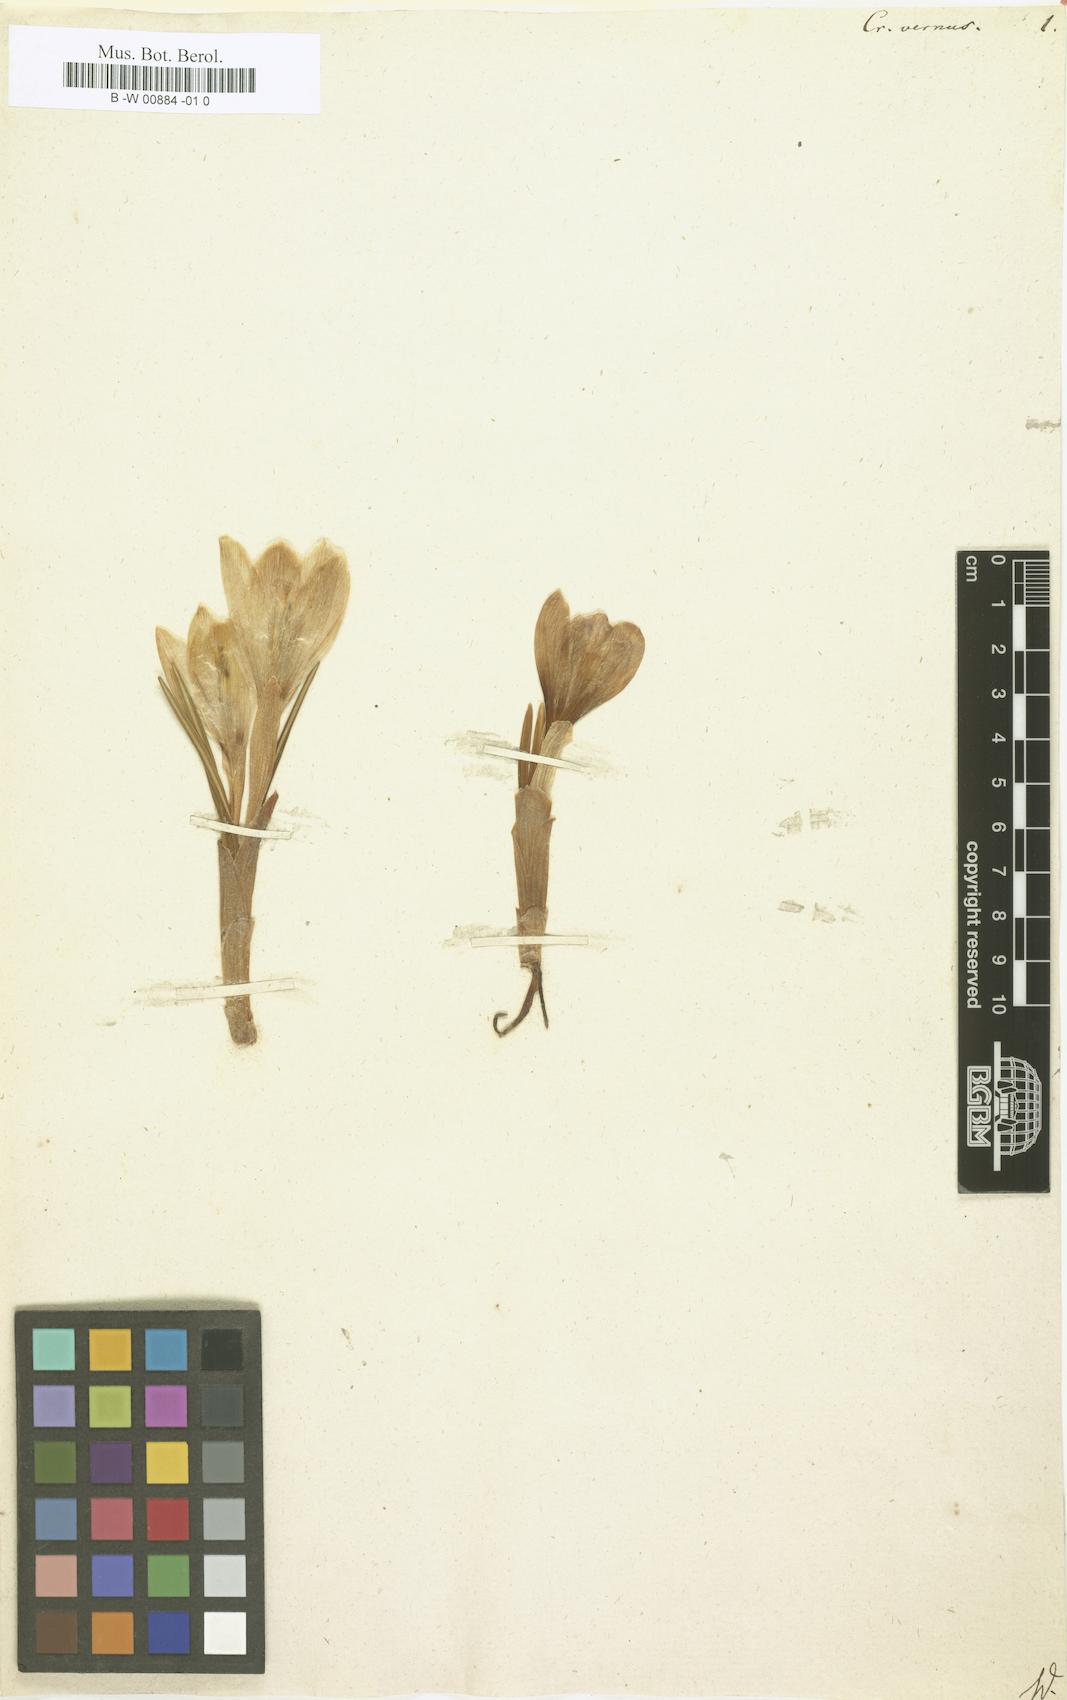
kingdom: Plantae
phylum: Tracheophyta
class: Liliopsida
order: Asparagales
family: Iridaceae
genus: Crocus
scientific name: Crocus vernus
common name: Spring crocus
